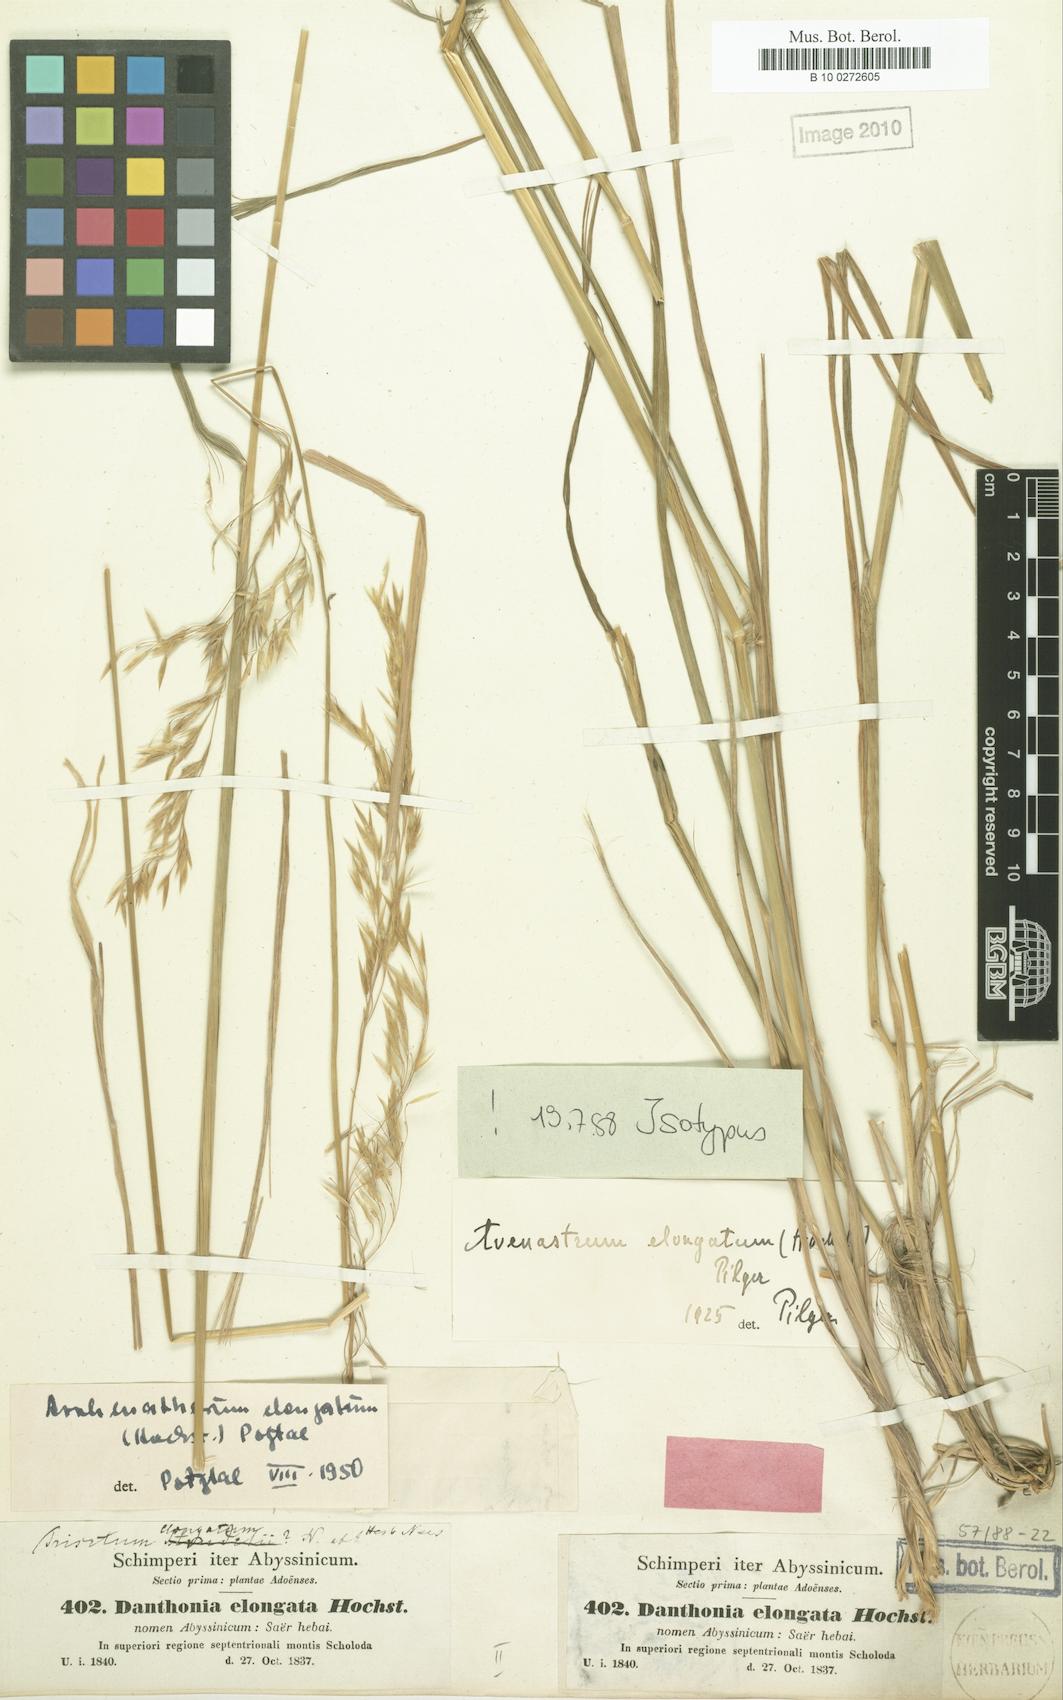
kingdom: Plantae
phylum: Tracheophyta
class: Liliopsida
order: Poales
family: Poaceae
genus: Trisetopsis
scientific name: Trisetopsis elongata
